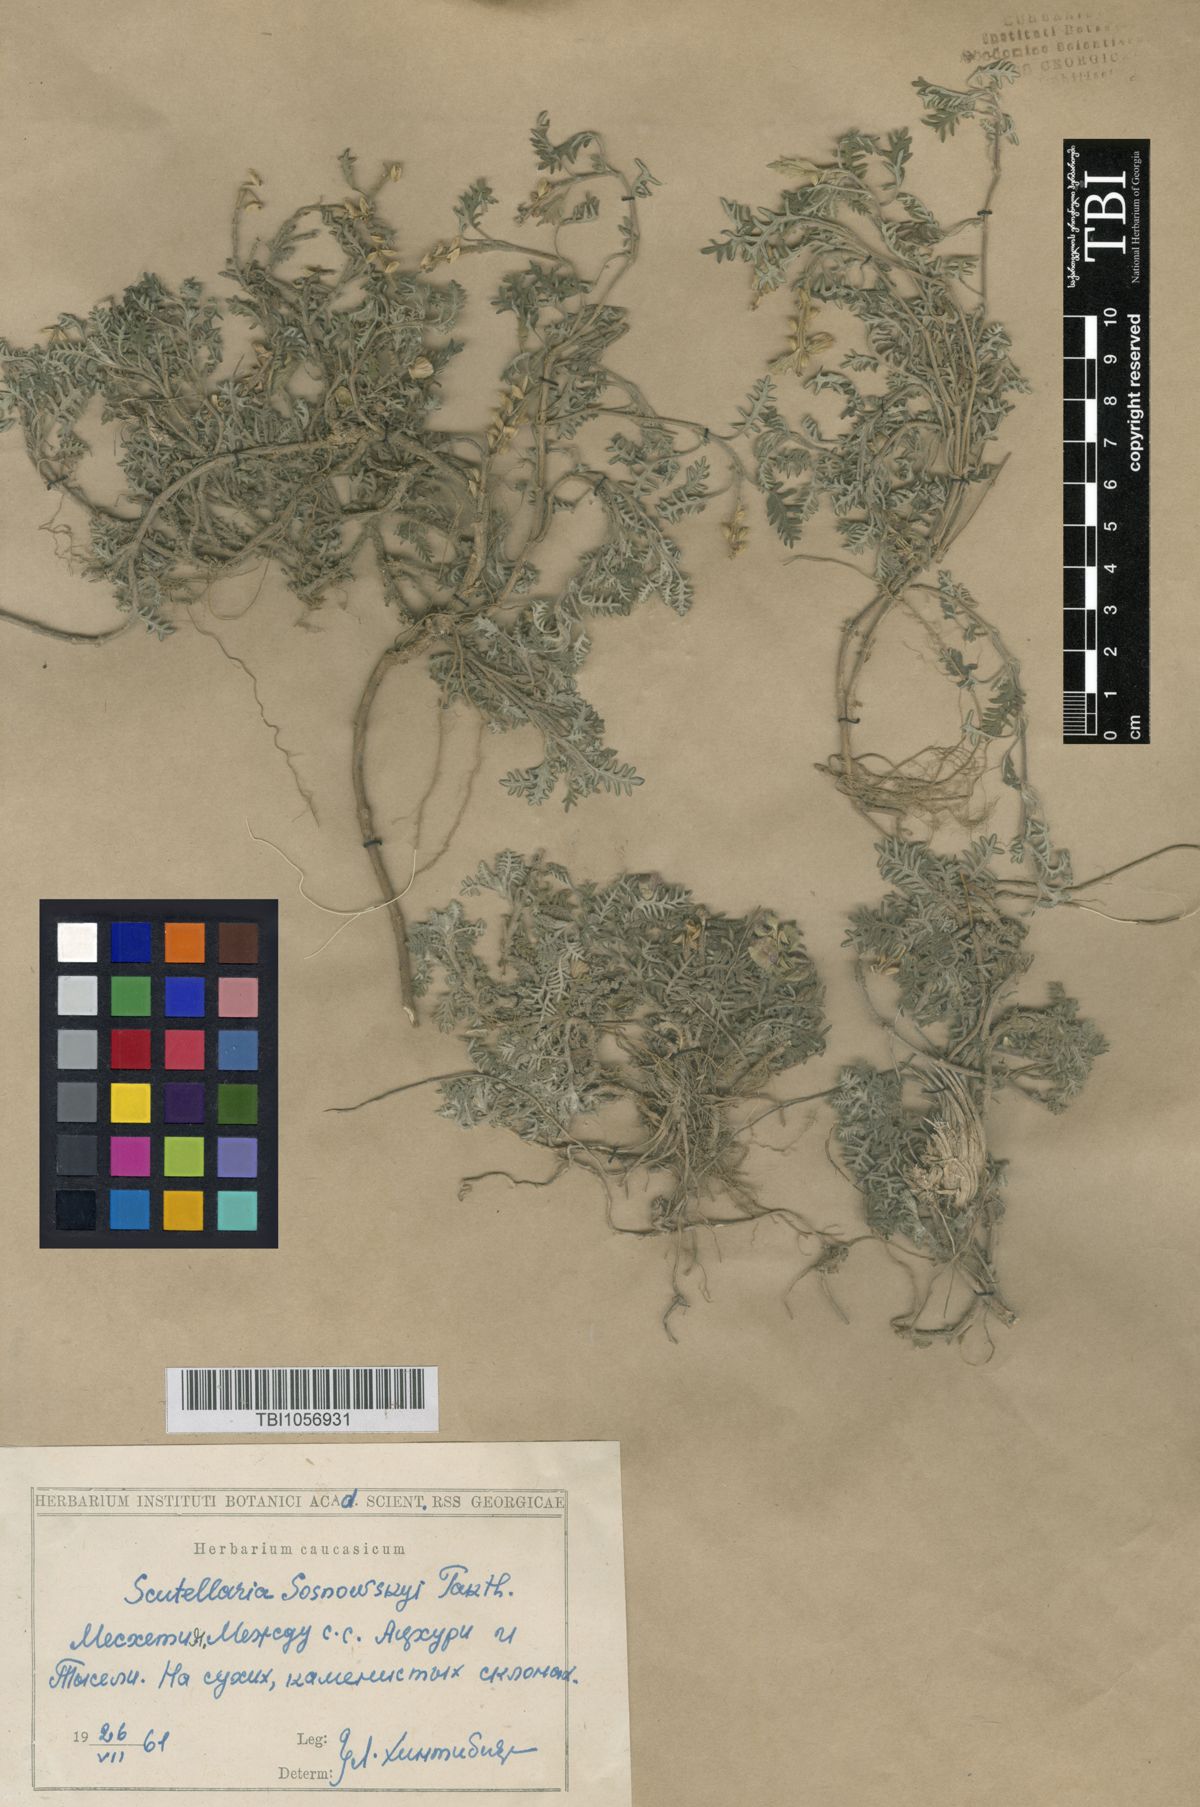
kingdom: Plantae
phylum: Tracheophyta
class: Magnoliopsida
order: Lamiales
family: Lamiaceae
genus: Scutellaria
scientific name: Scutellaria sosnowskyi
